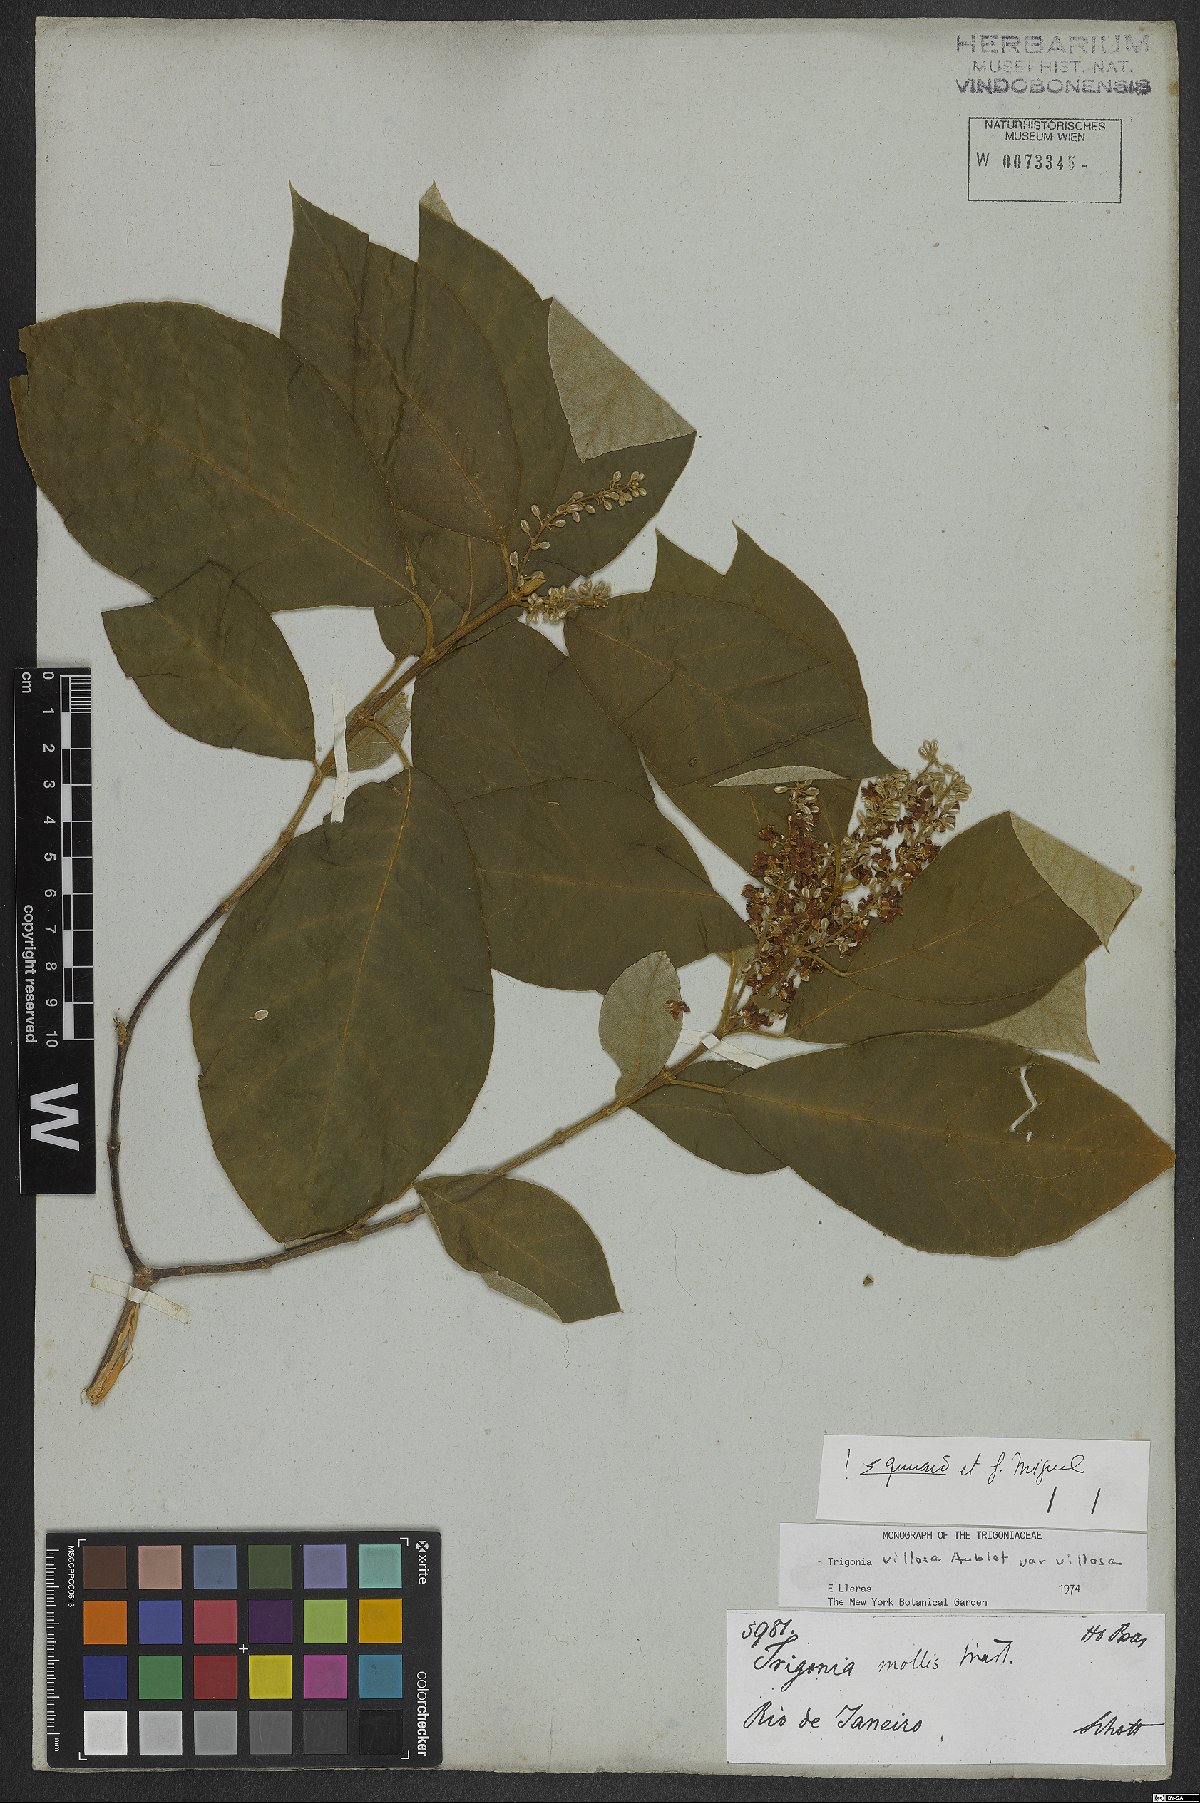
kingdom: Plantae
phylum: Tracheophyta
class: Magnoliopsida
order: Malpighiales
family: Trigoniaceae
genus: Trigonia
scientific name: Trigonia villosa
